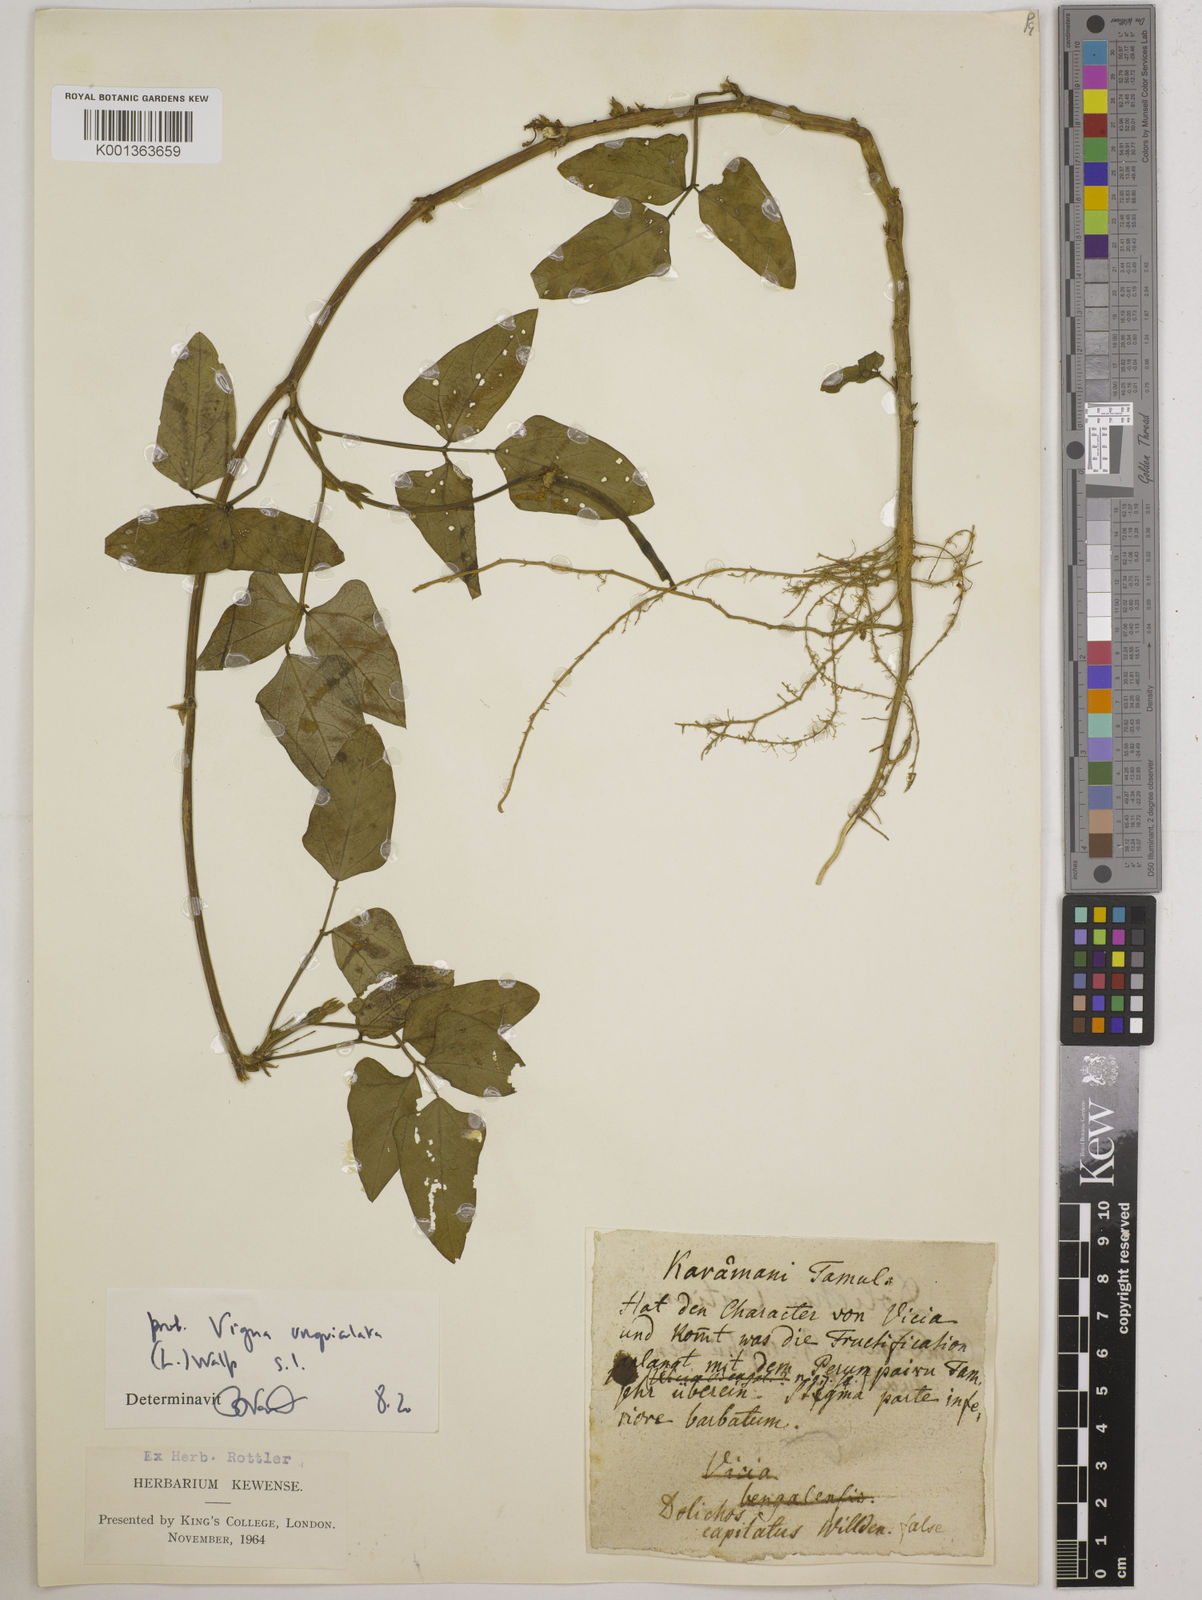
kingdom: Plantae
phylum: Tracheophyta
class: Magnoliopsida
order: Fabales
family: Fabaceae
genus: Vigna
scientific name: Vigna unguiculata
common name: Cowpea
